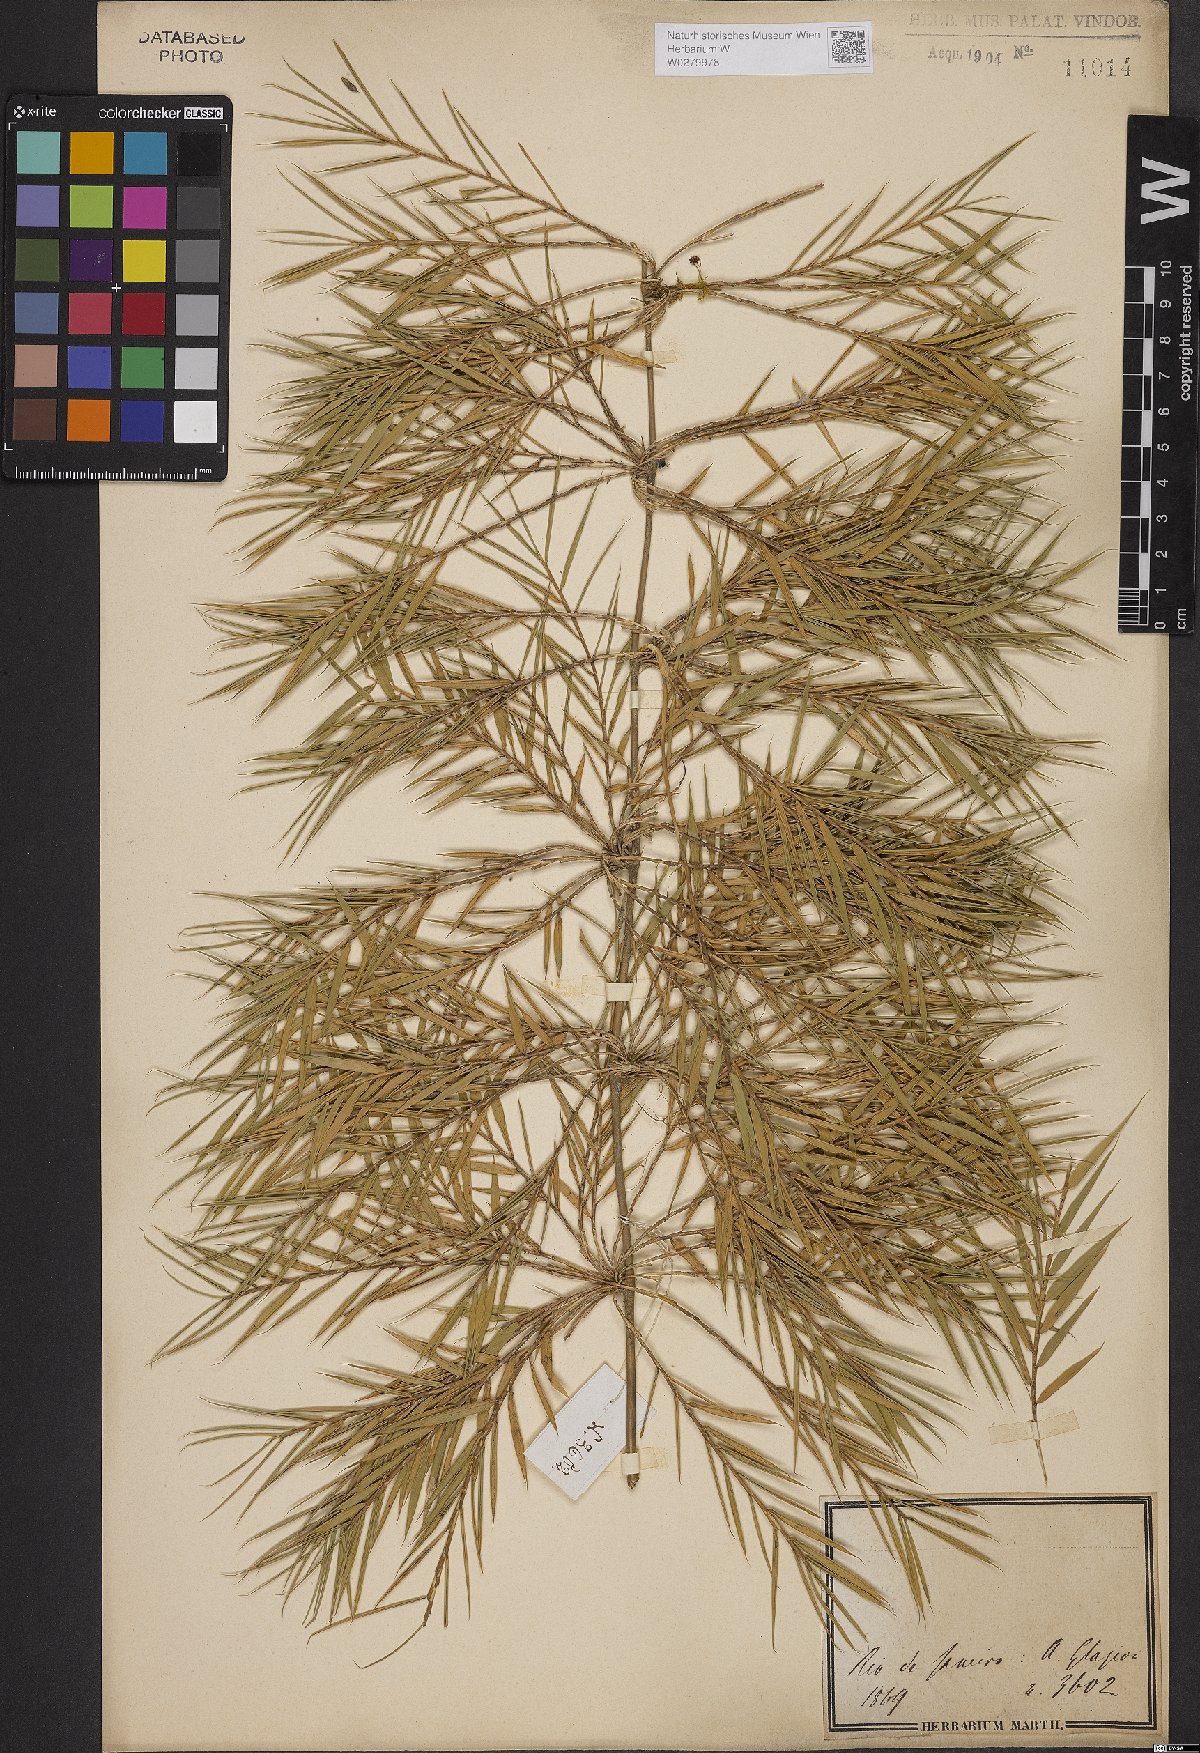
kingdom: Plantae
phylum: Tracheophyta
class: Liliopsida
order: Poales
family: Poaceae
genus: Bambusa
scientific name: Bambusa
